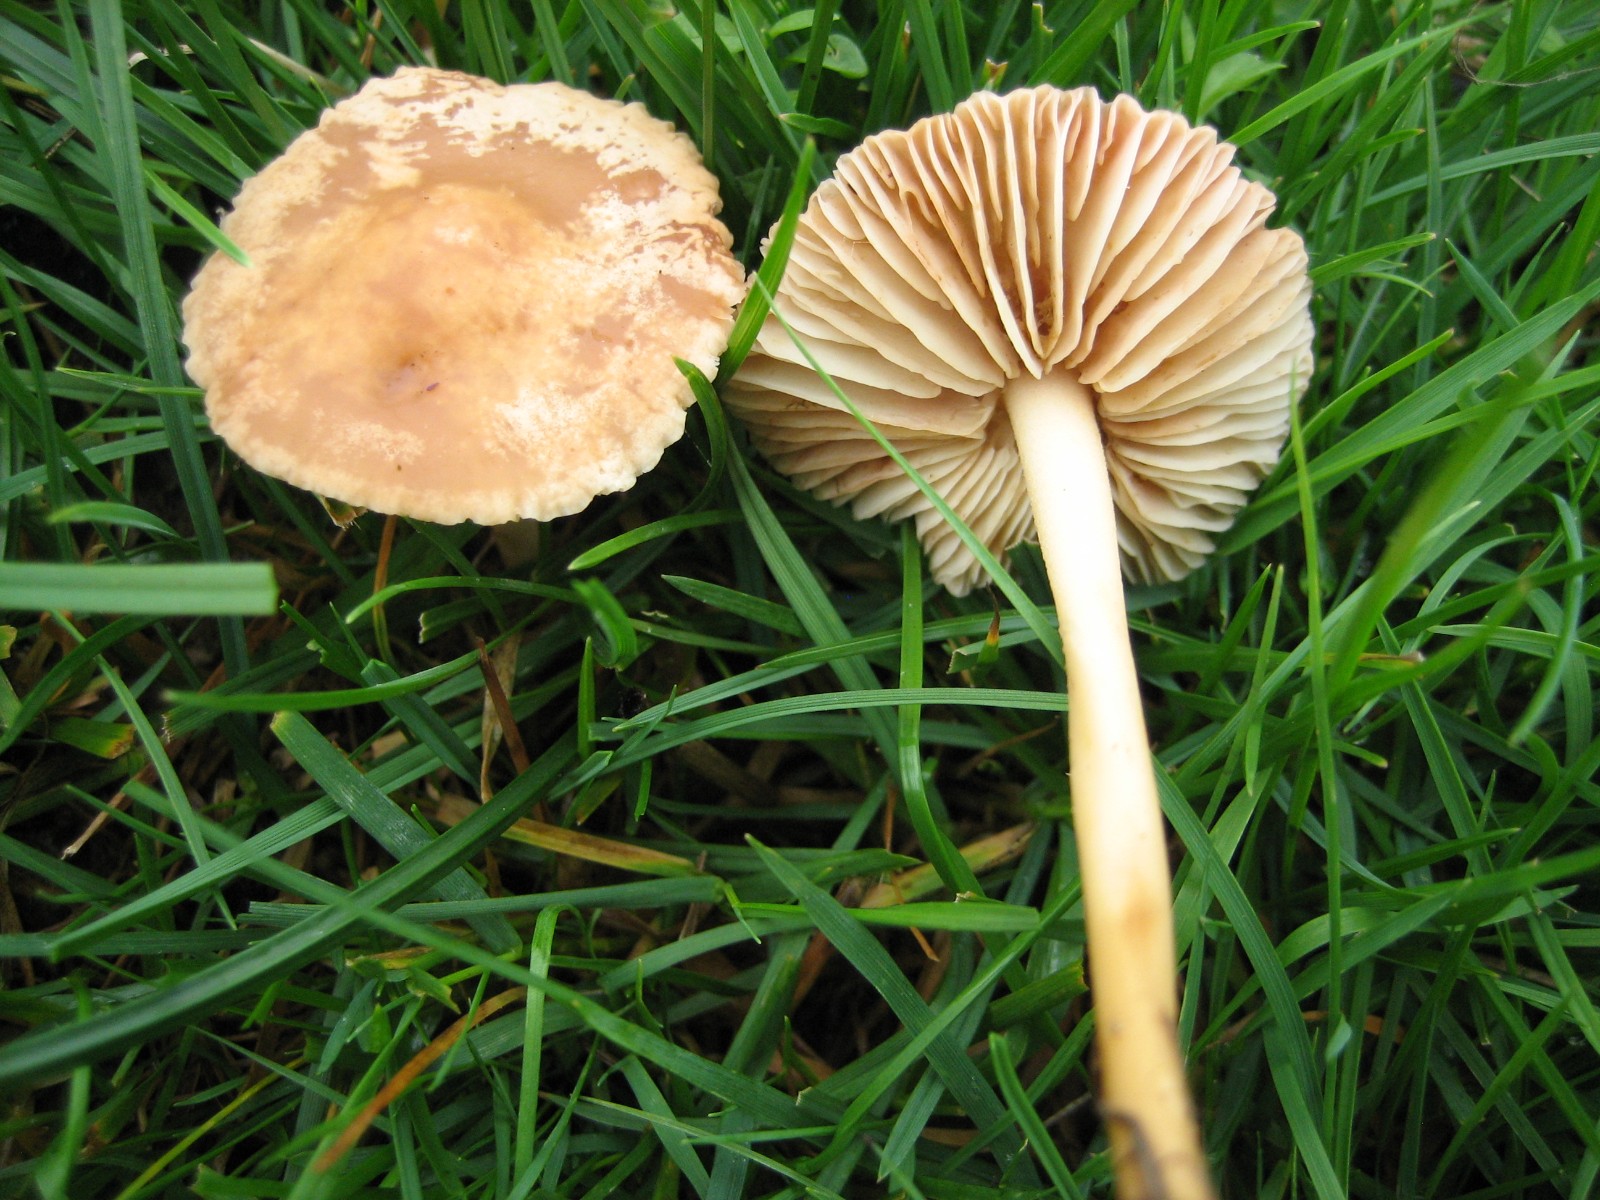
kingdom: Fungi
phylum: Basidiomycota
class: Agaricomycetes
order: Agaricales
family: Marasmiaceae
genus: Marasmius
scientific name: Marasmius oreades
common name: elledans-bruskhat
